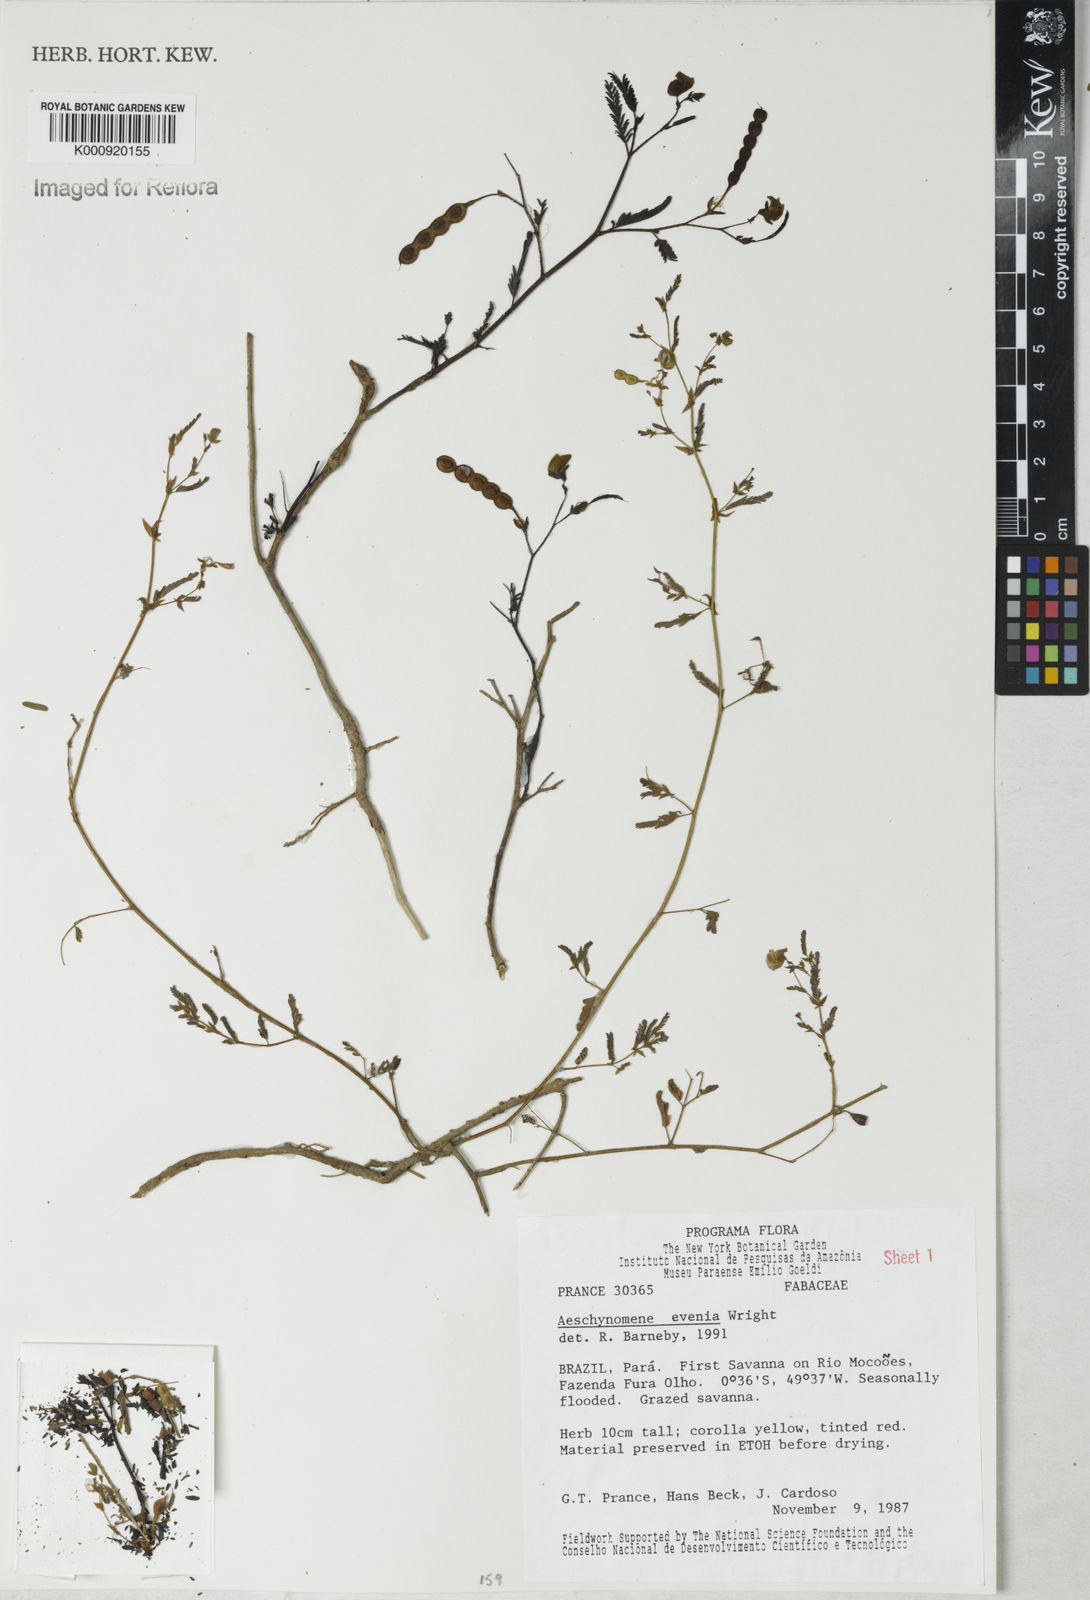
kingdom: Plantae
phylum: Tracheophyta
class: Magnoliopsida
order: Fabales
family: Fabaceae
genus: Aeschynomene
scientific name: Aeschynomene evenia
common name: Shrubby jointvetch
